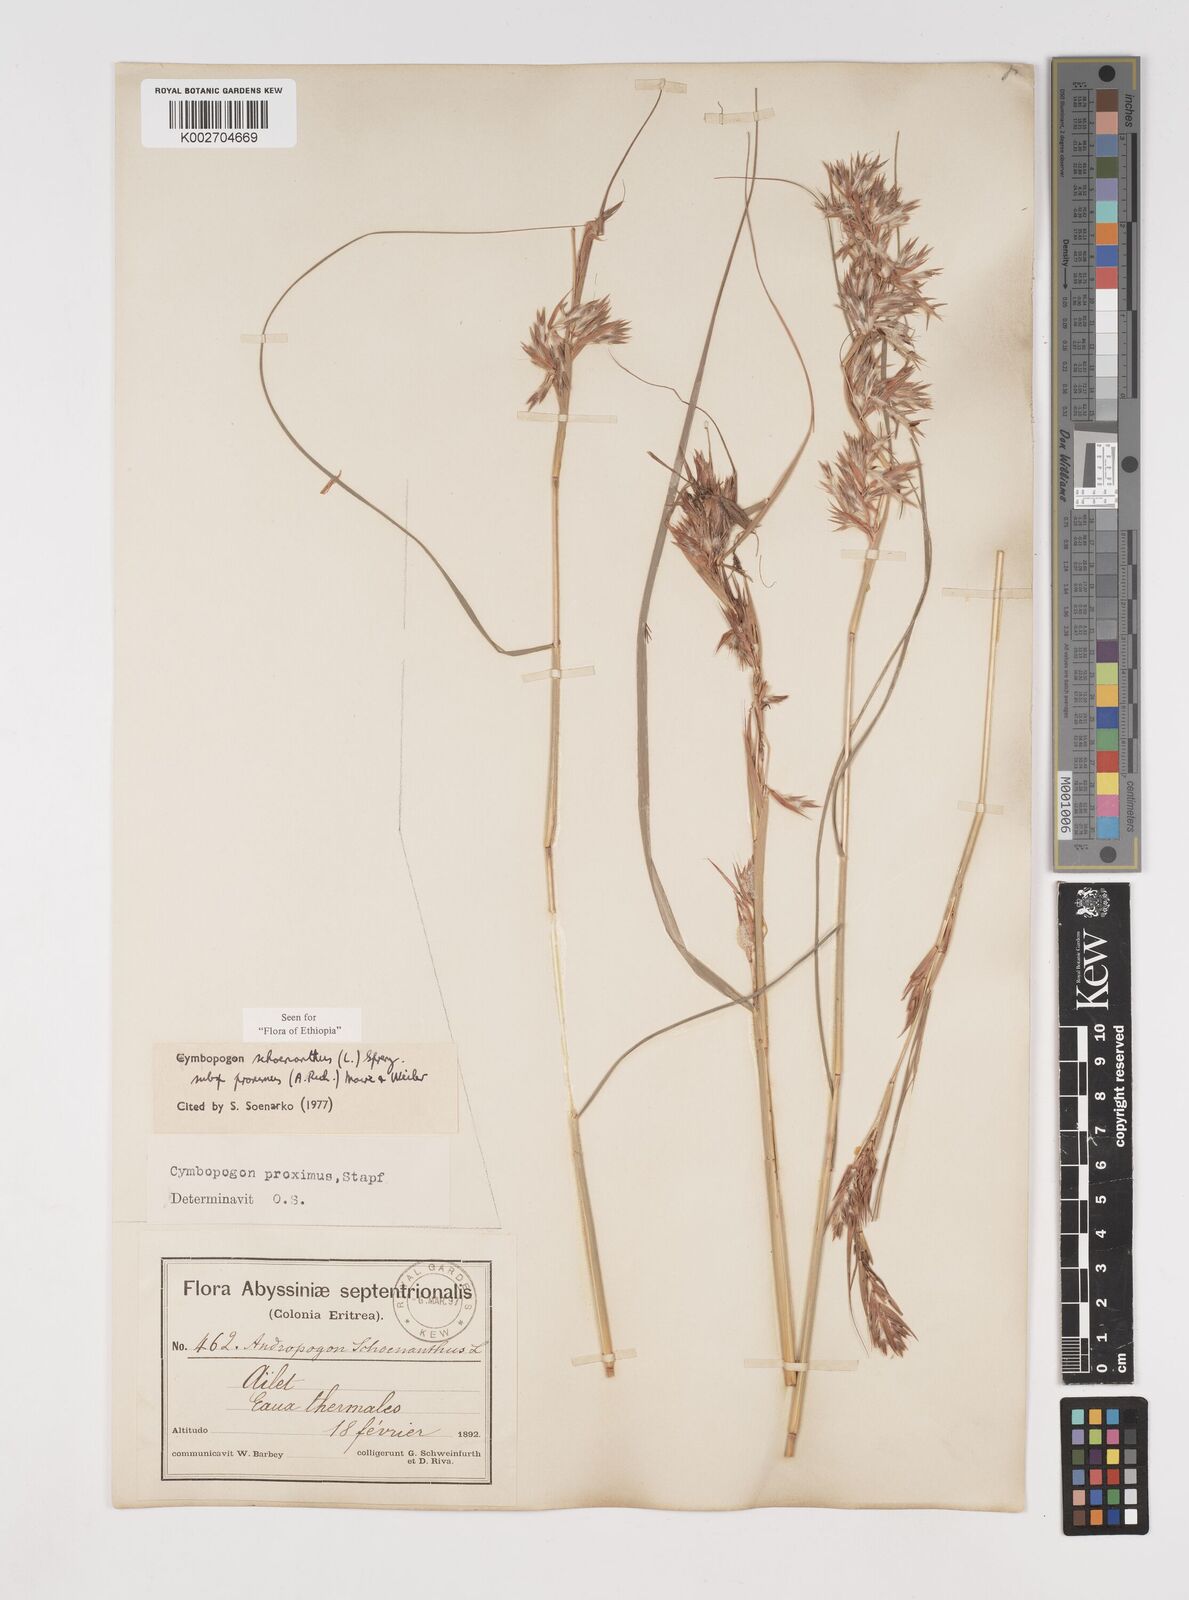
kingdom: Plantae
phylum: Tracheophyta
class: Liliopsida
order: Poales
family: Poaceae
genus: Cymbopogon
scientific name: Cymbopogon schoenanthus
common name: Geranium grass
